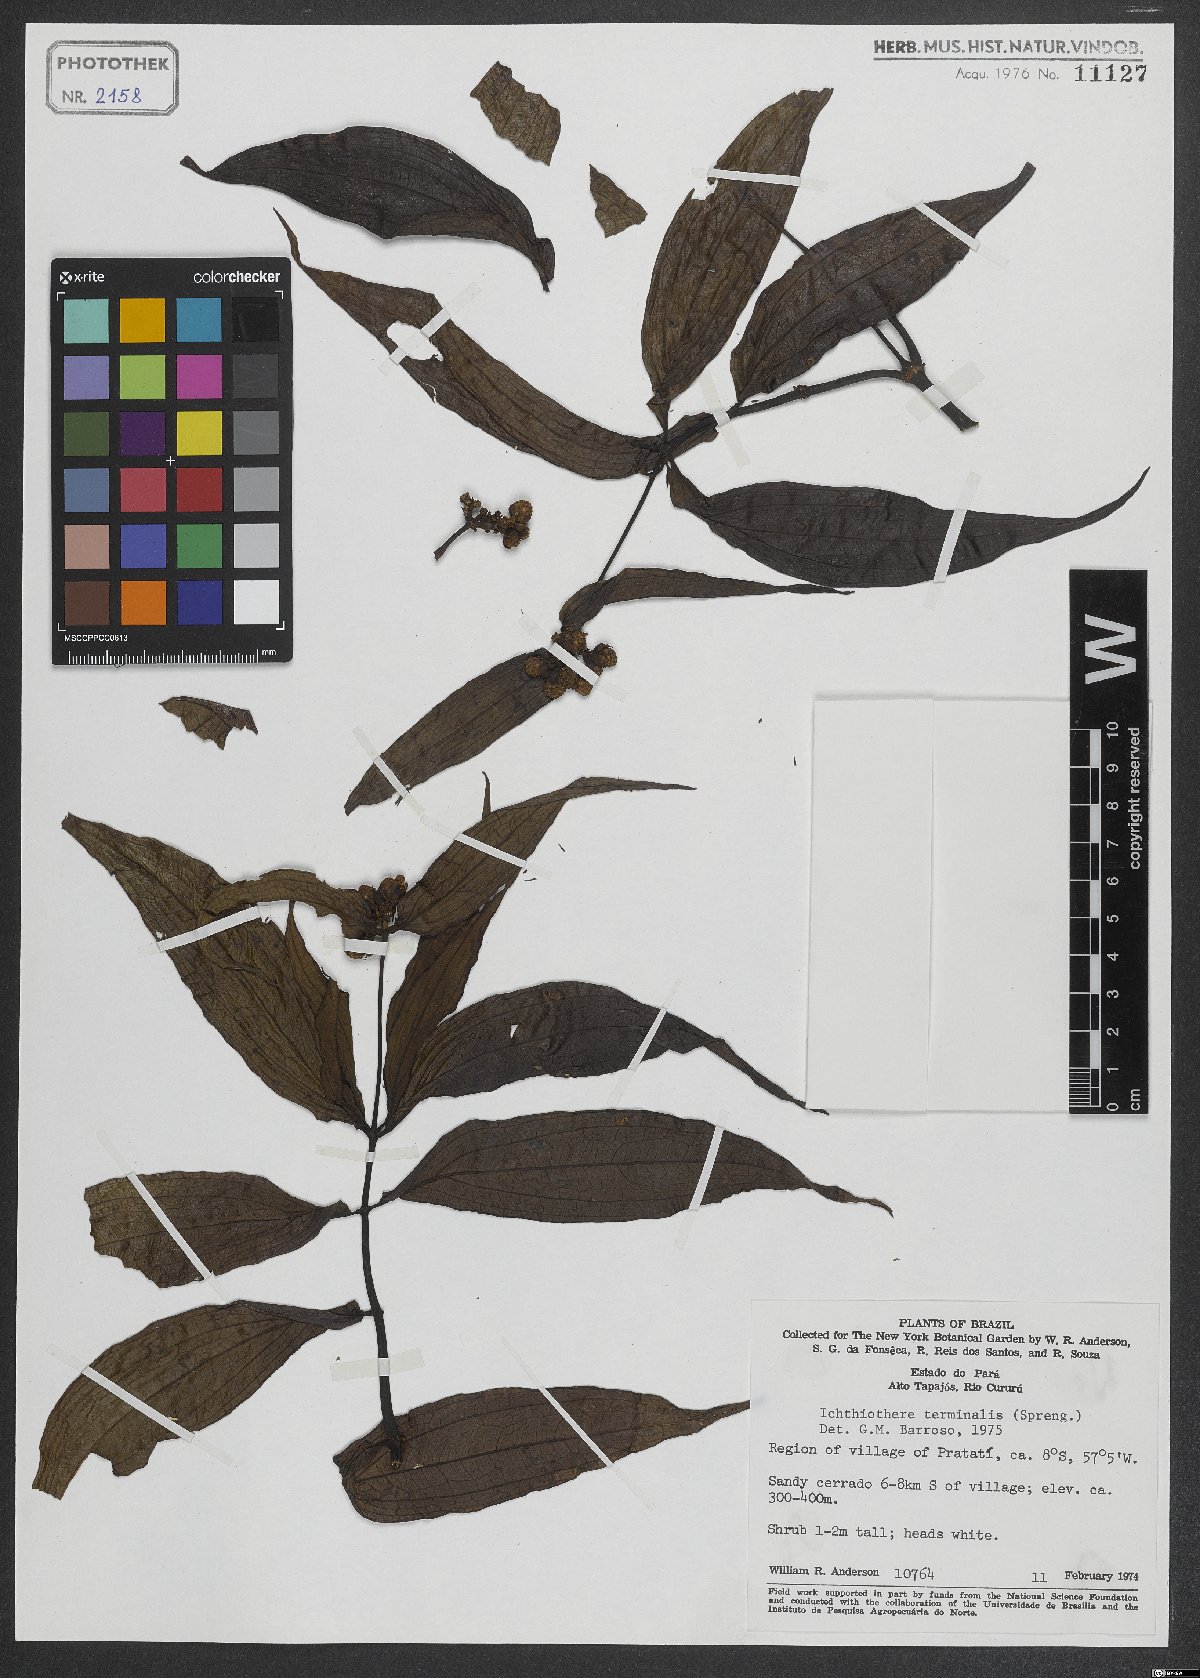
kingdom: Plantae
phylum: Tracheophyta
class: Magnoliopsida
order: Asterales
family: Asteraceae
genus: Ichthyothere
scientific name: Ichthyothere terminalis
